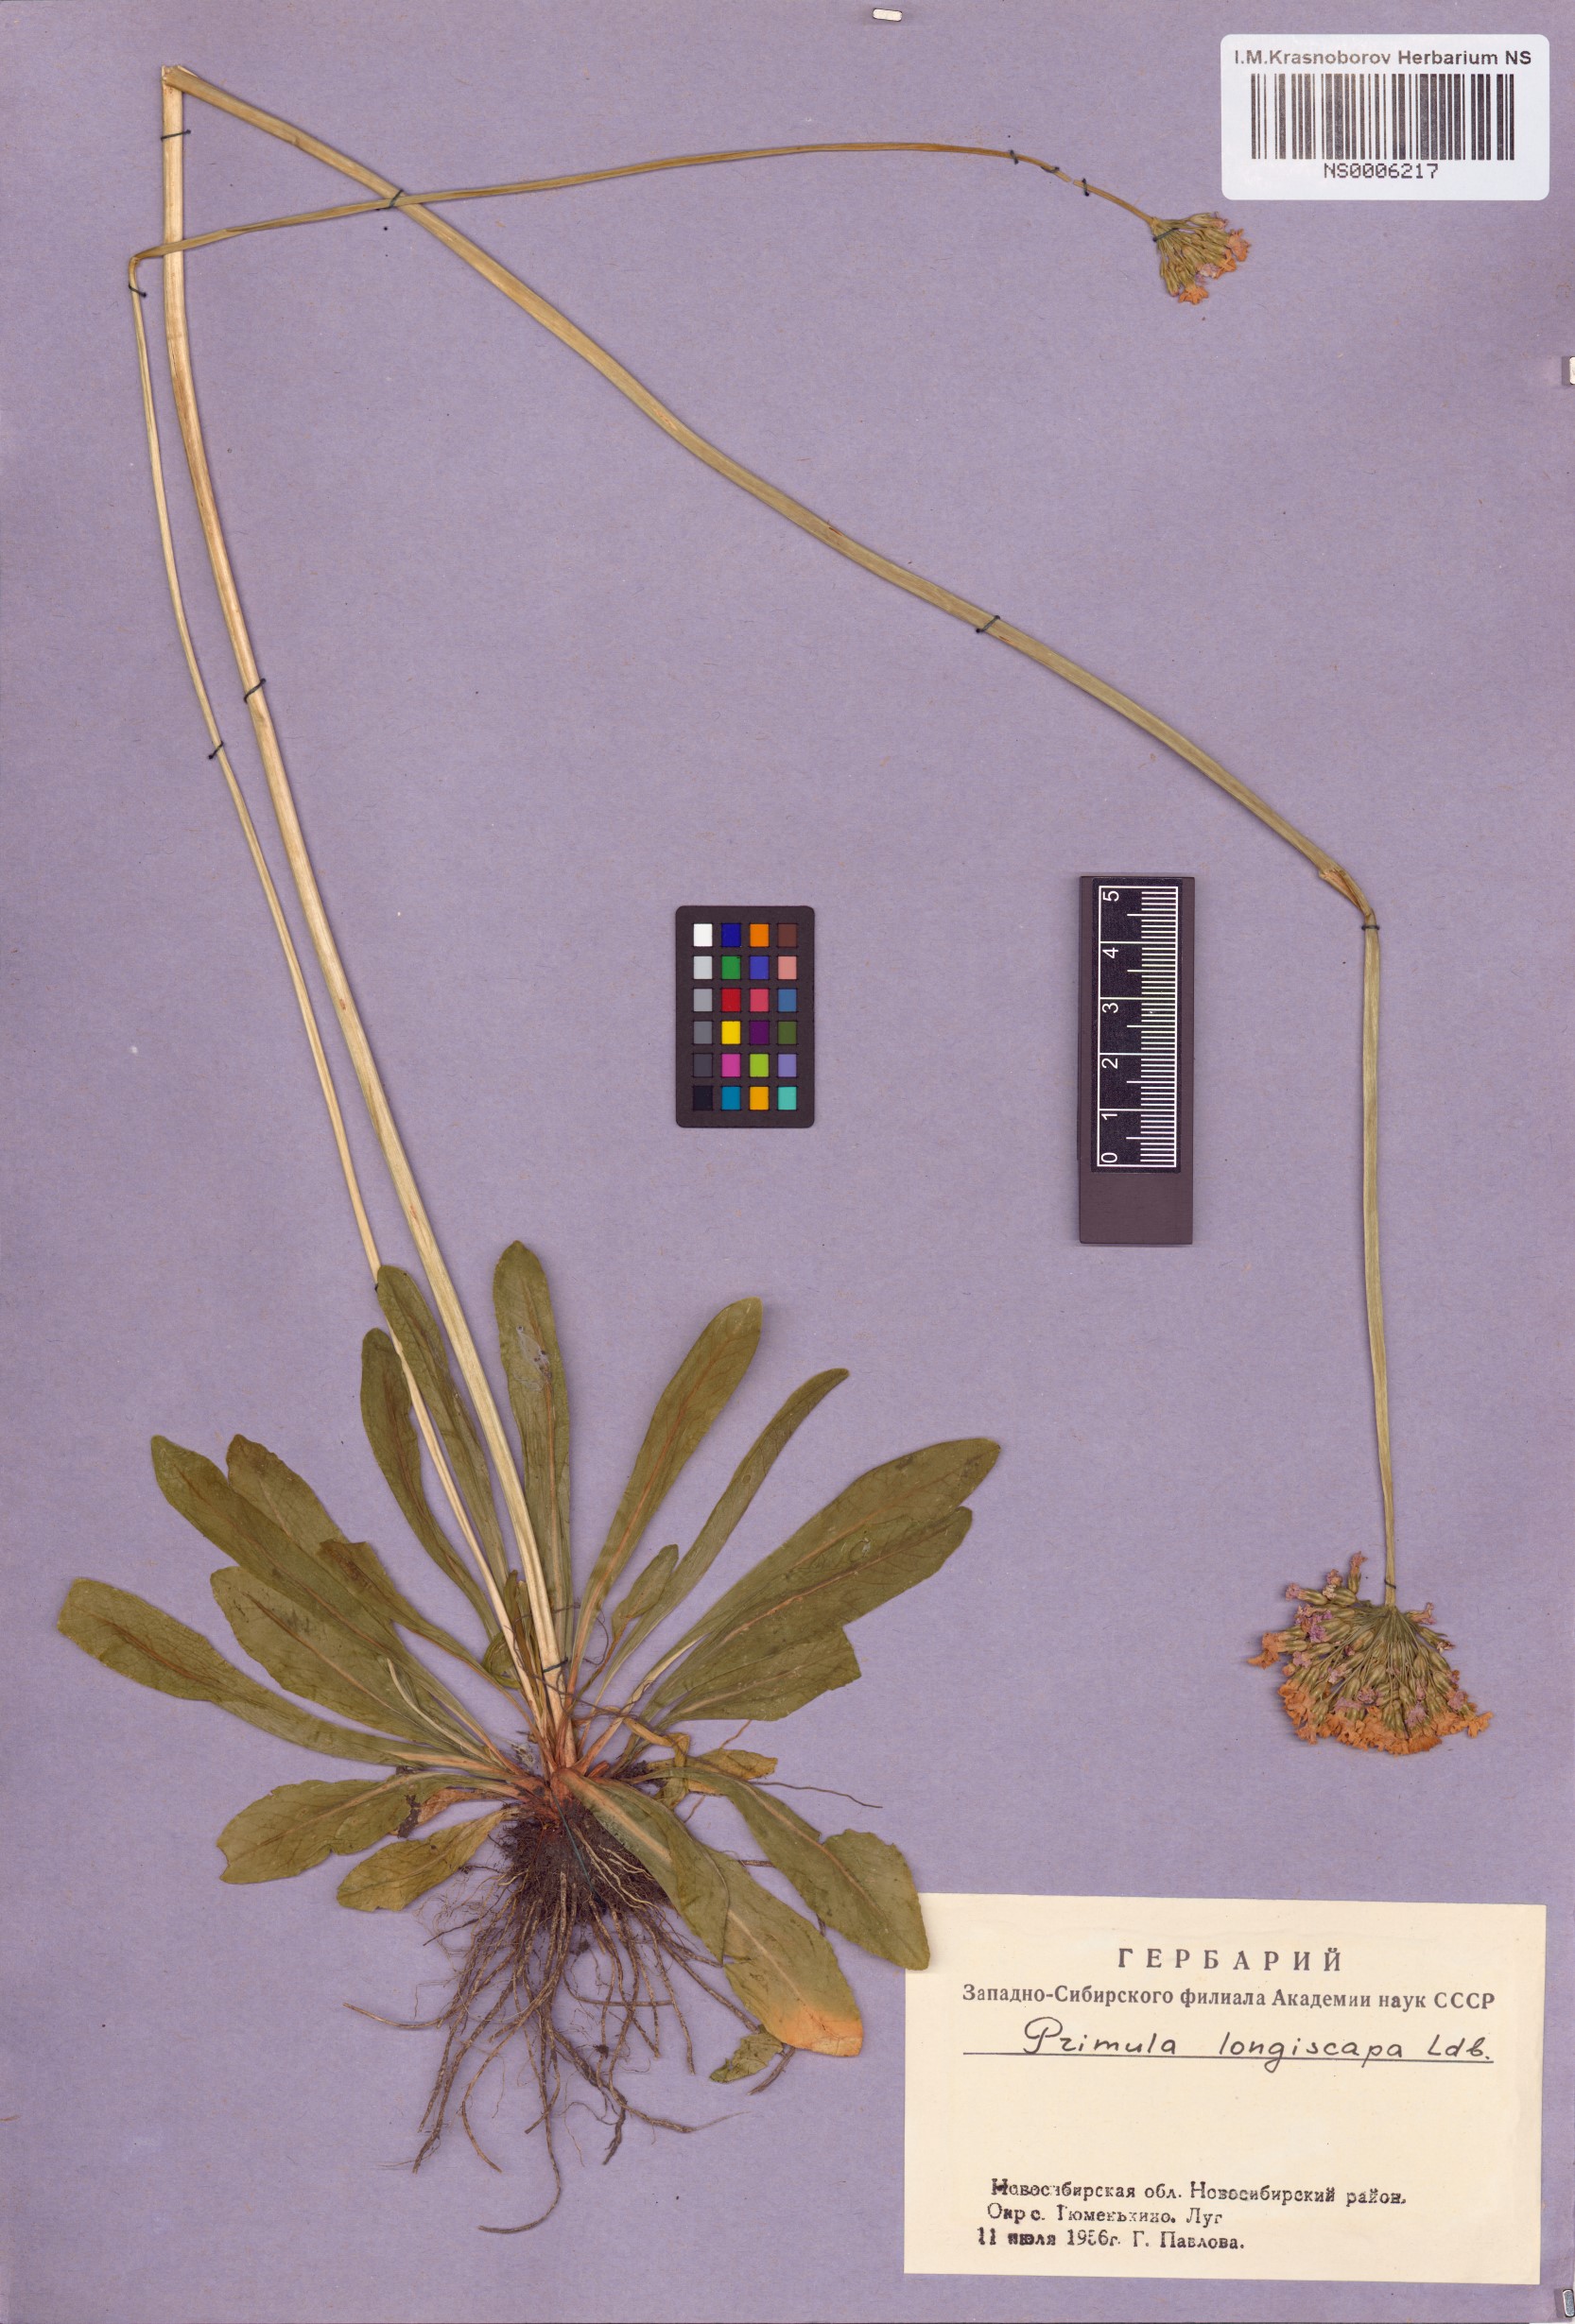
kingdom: Plantae
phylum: Tracheophyta
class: Magnoliopsida
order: Ericales
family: Primulaceae
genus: Primula
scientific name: Primula longiscapa
